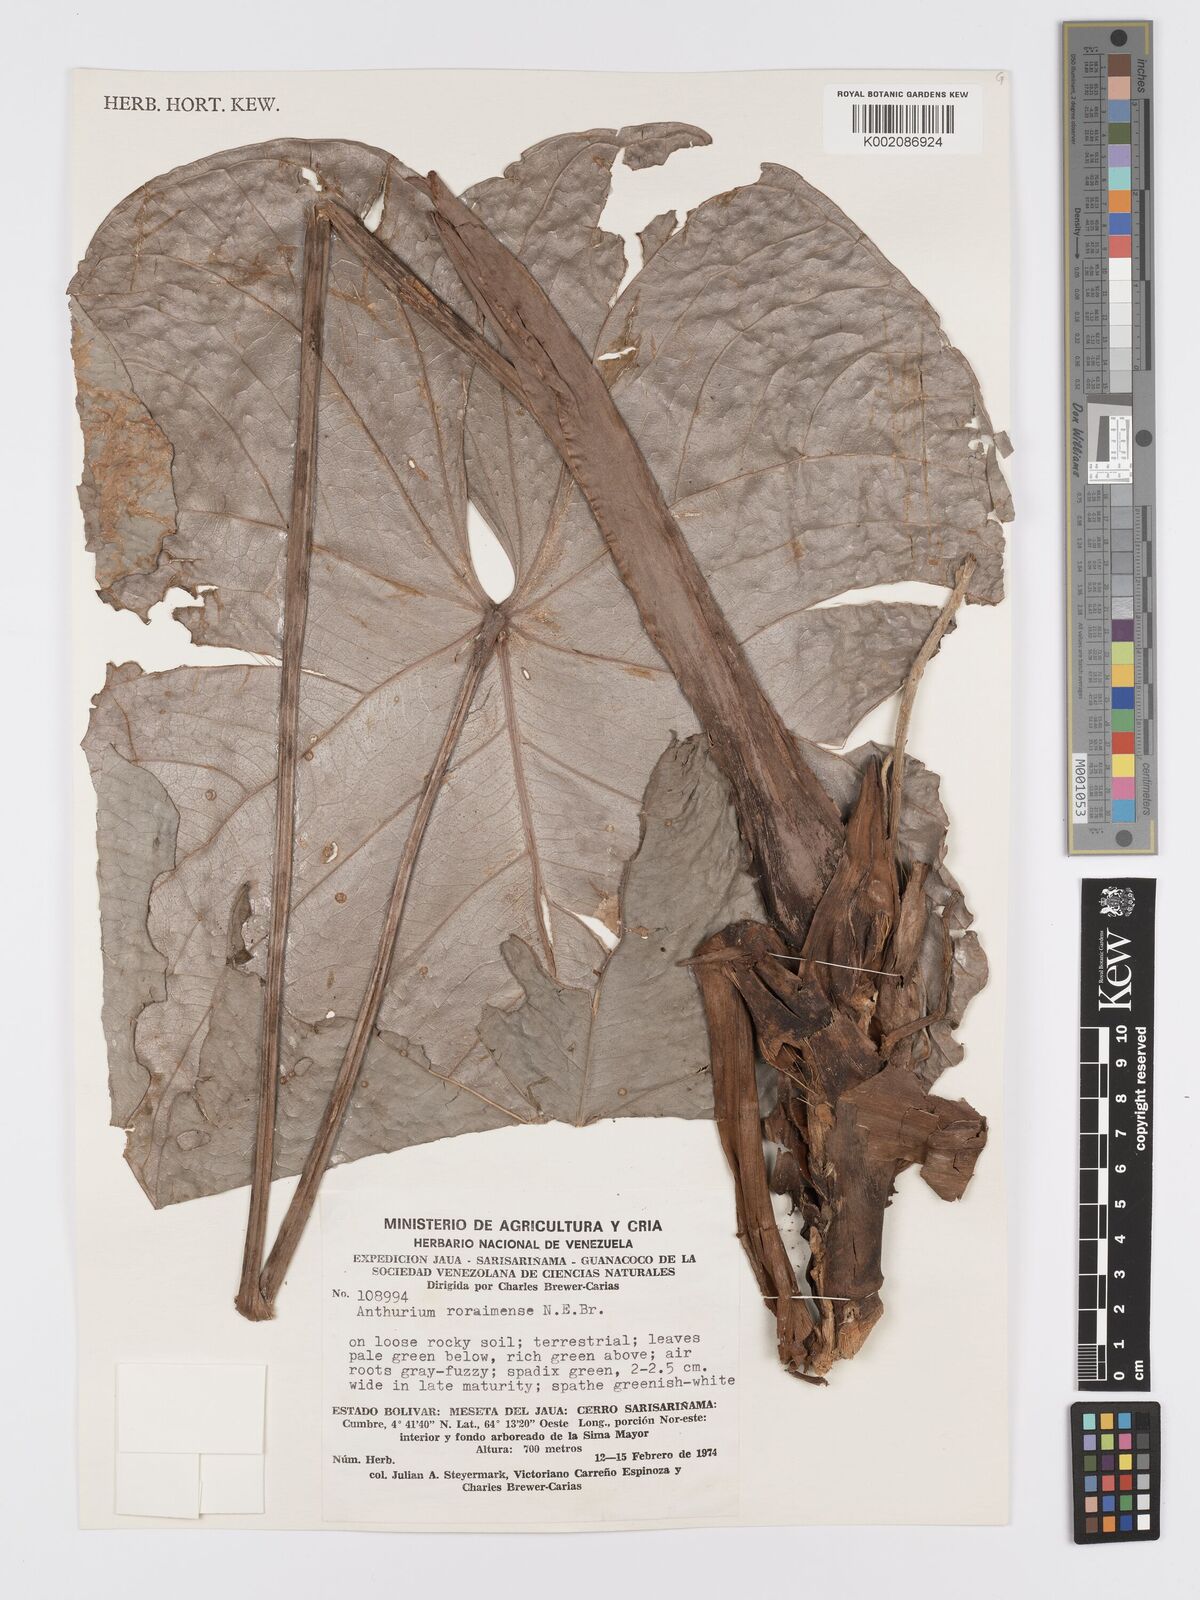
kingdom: Plantae
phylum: Tracheophyta
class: Liliopsida
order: Alismatales
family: Araceae
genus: Anthurium
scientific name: Anthurium roraimense
